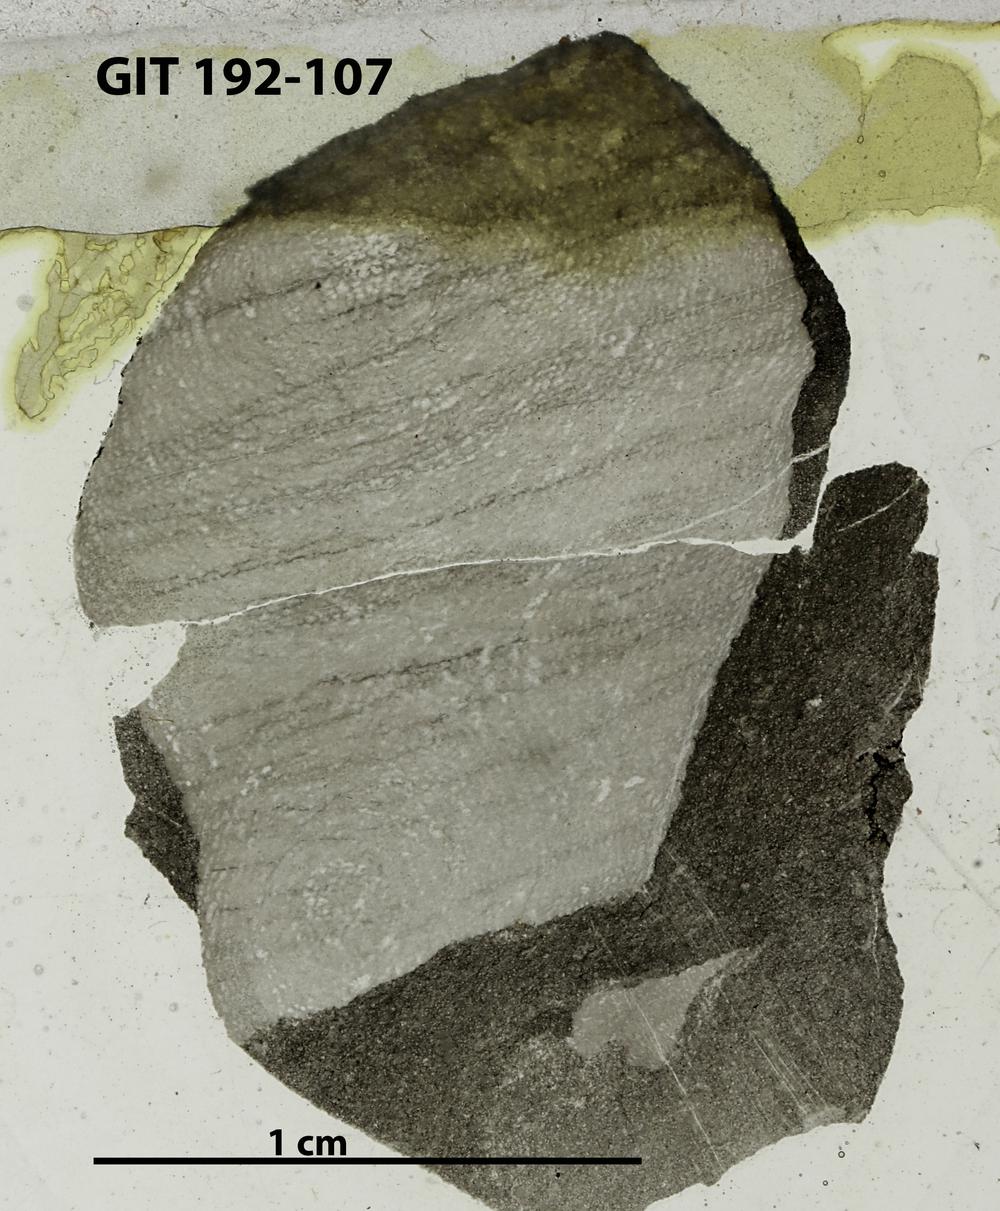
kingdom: Animalia
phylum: Porifera
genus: Clavidictyon
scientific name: Clavidictyon
